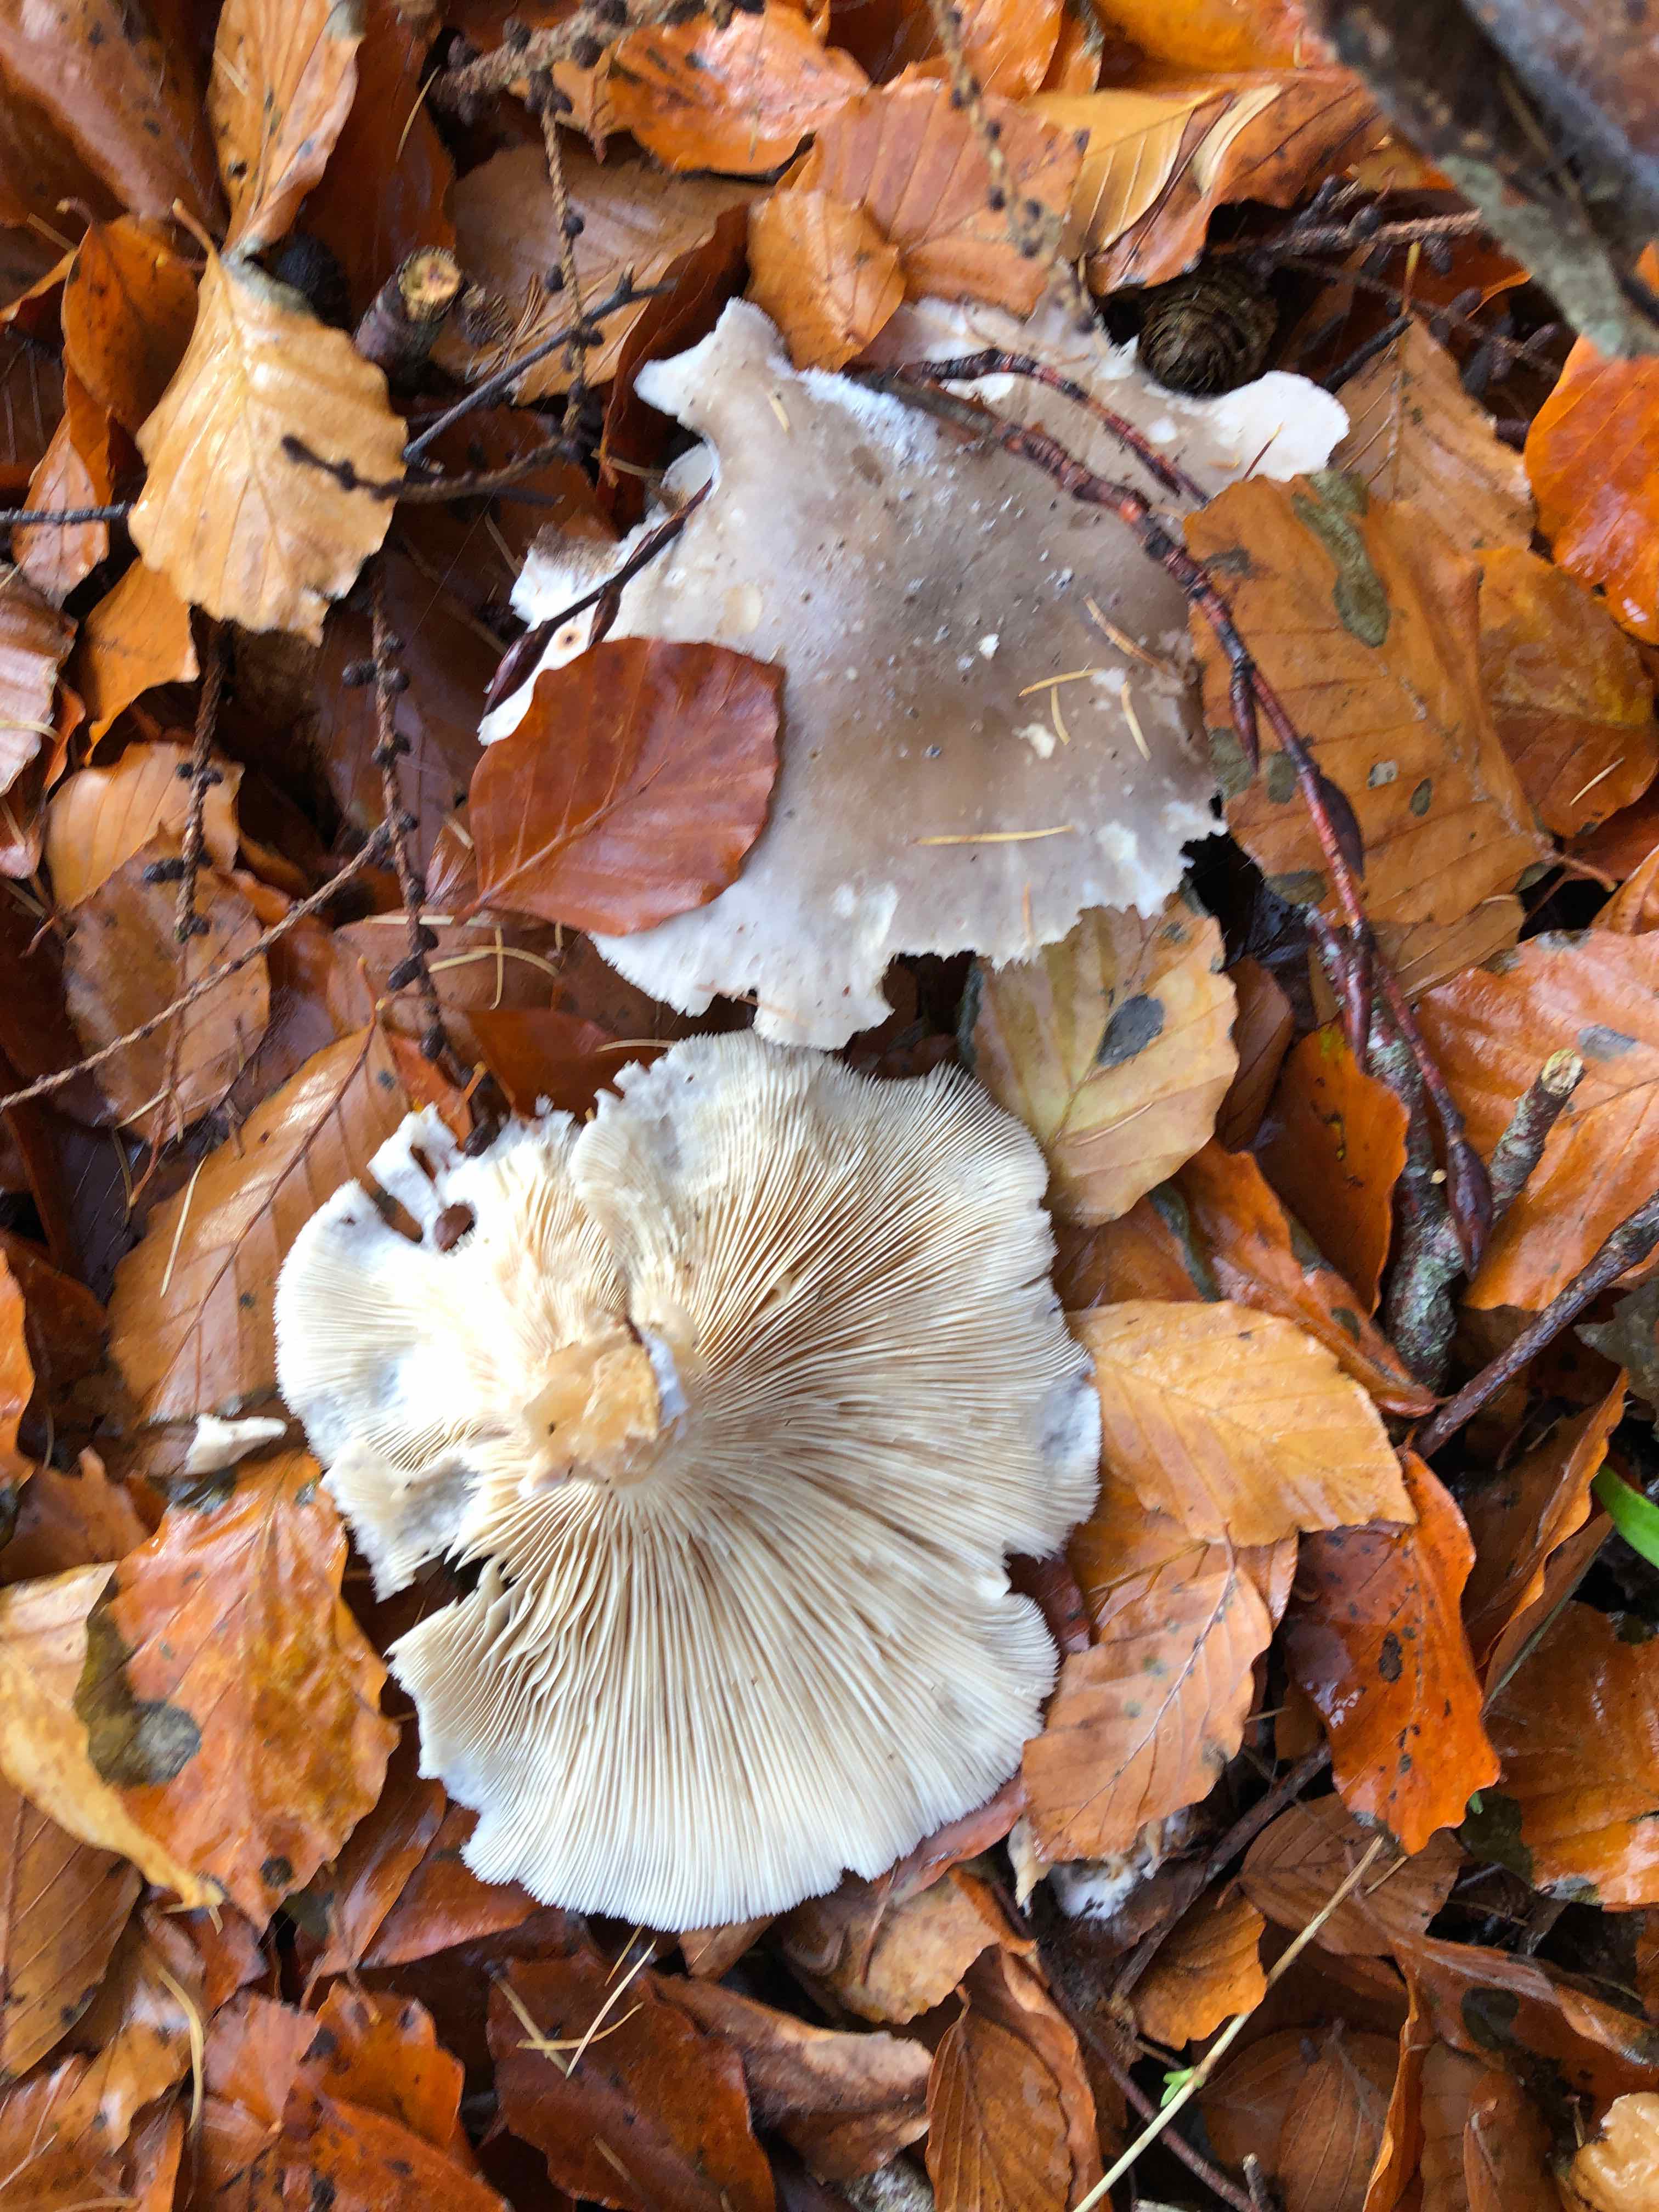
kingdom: Fungi
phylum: Basidiomycota
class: Agaricomycetes
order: Agaricales
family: Tricholomataceae
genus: Clitocybe
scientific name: Clitocybe nebularis
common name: tåge-tragthat
